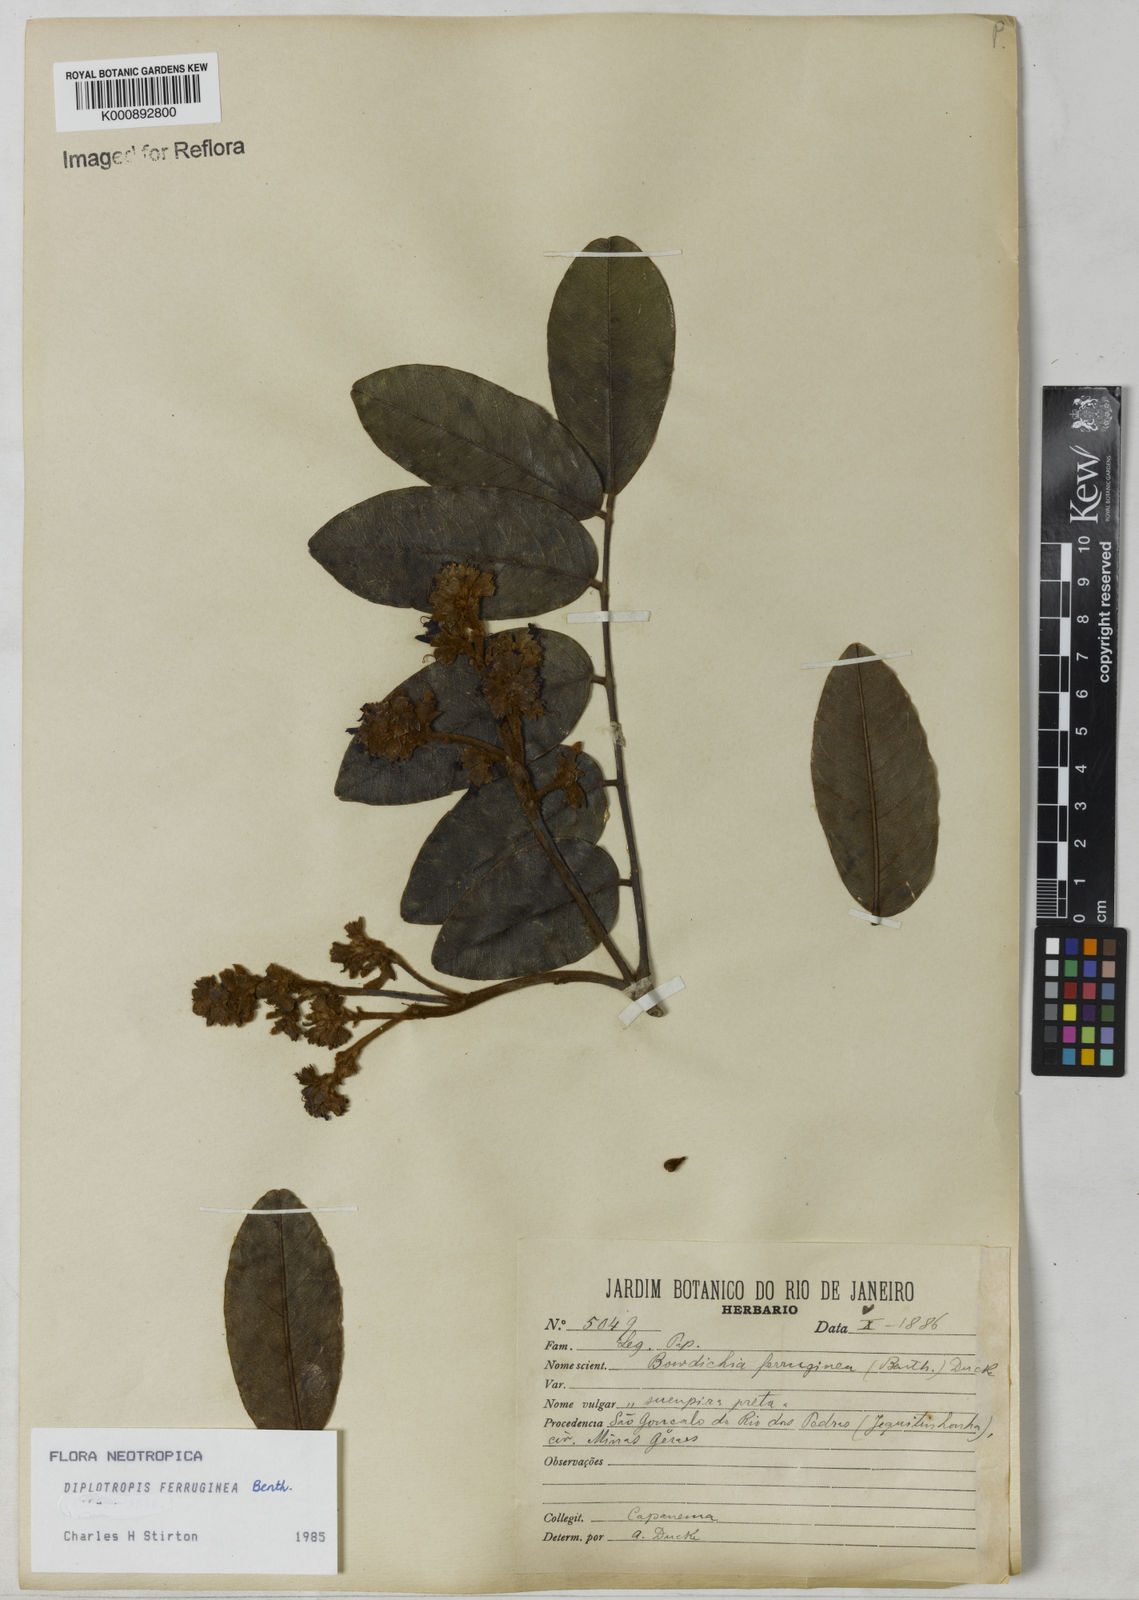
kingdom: Plantae
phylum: Tracheophyta
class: Magnoliopsida
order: Fabales
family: Fabaceae
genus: Diplotropis
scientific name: Diplotropis ferruginea
